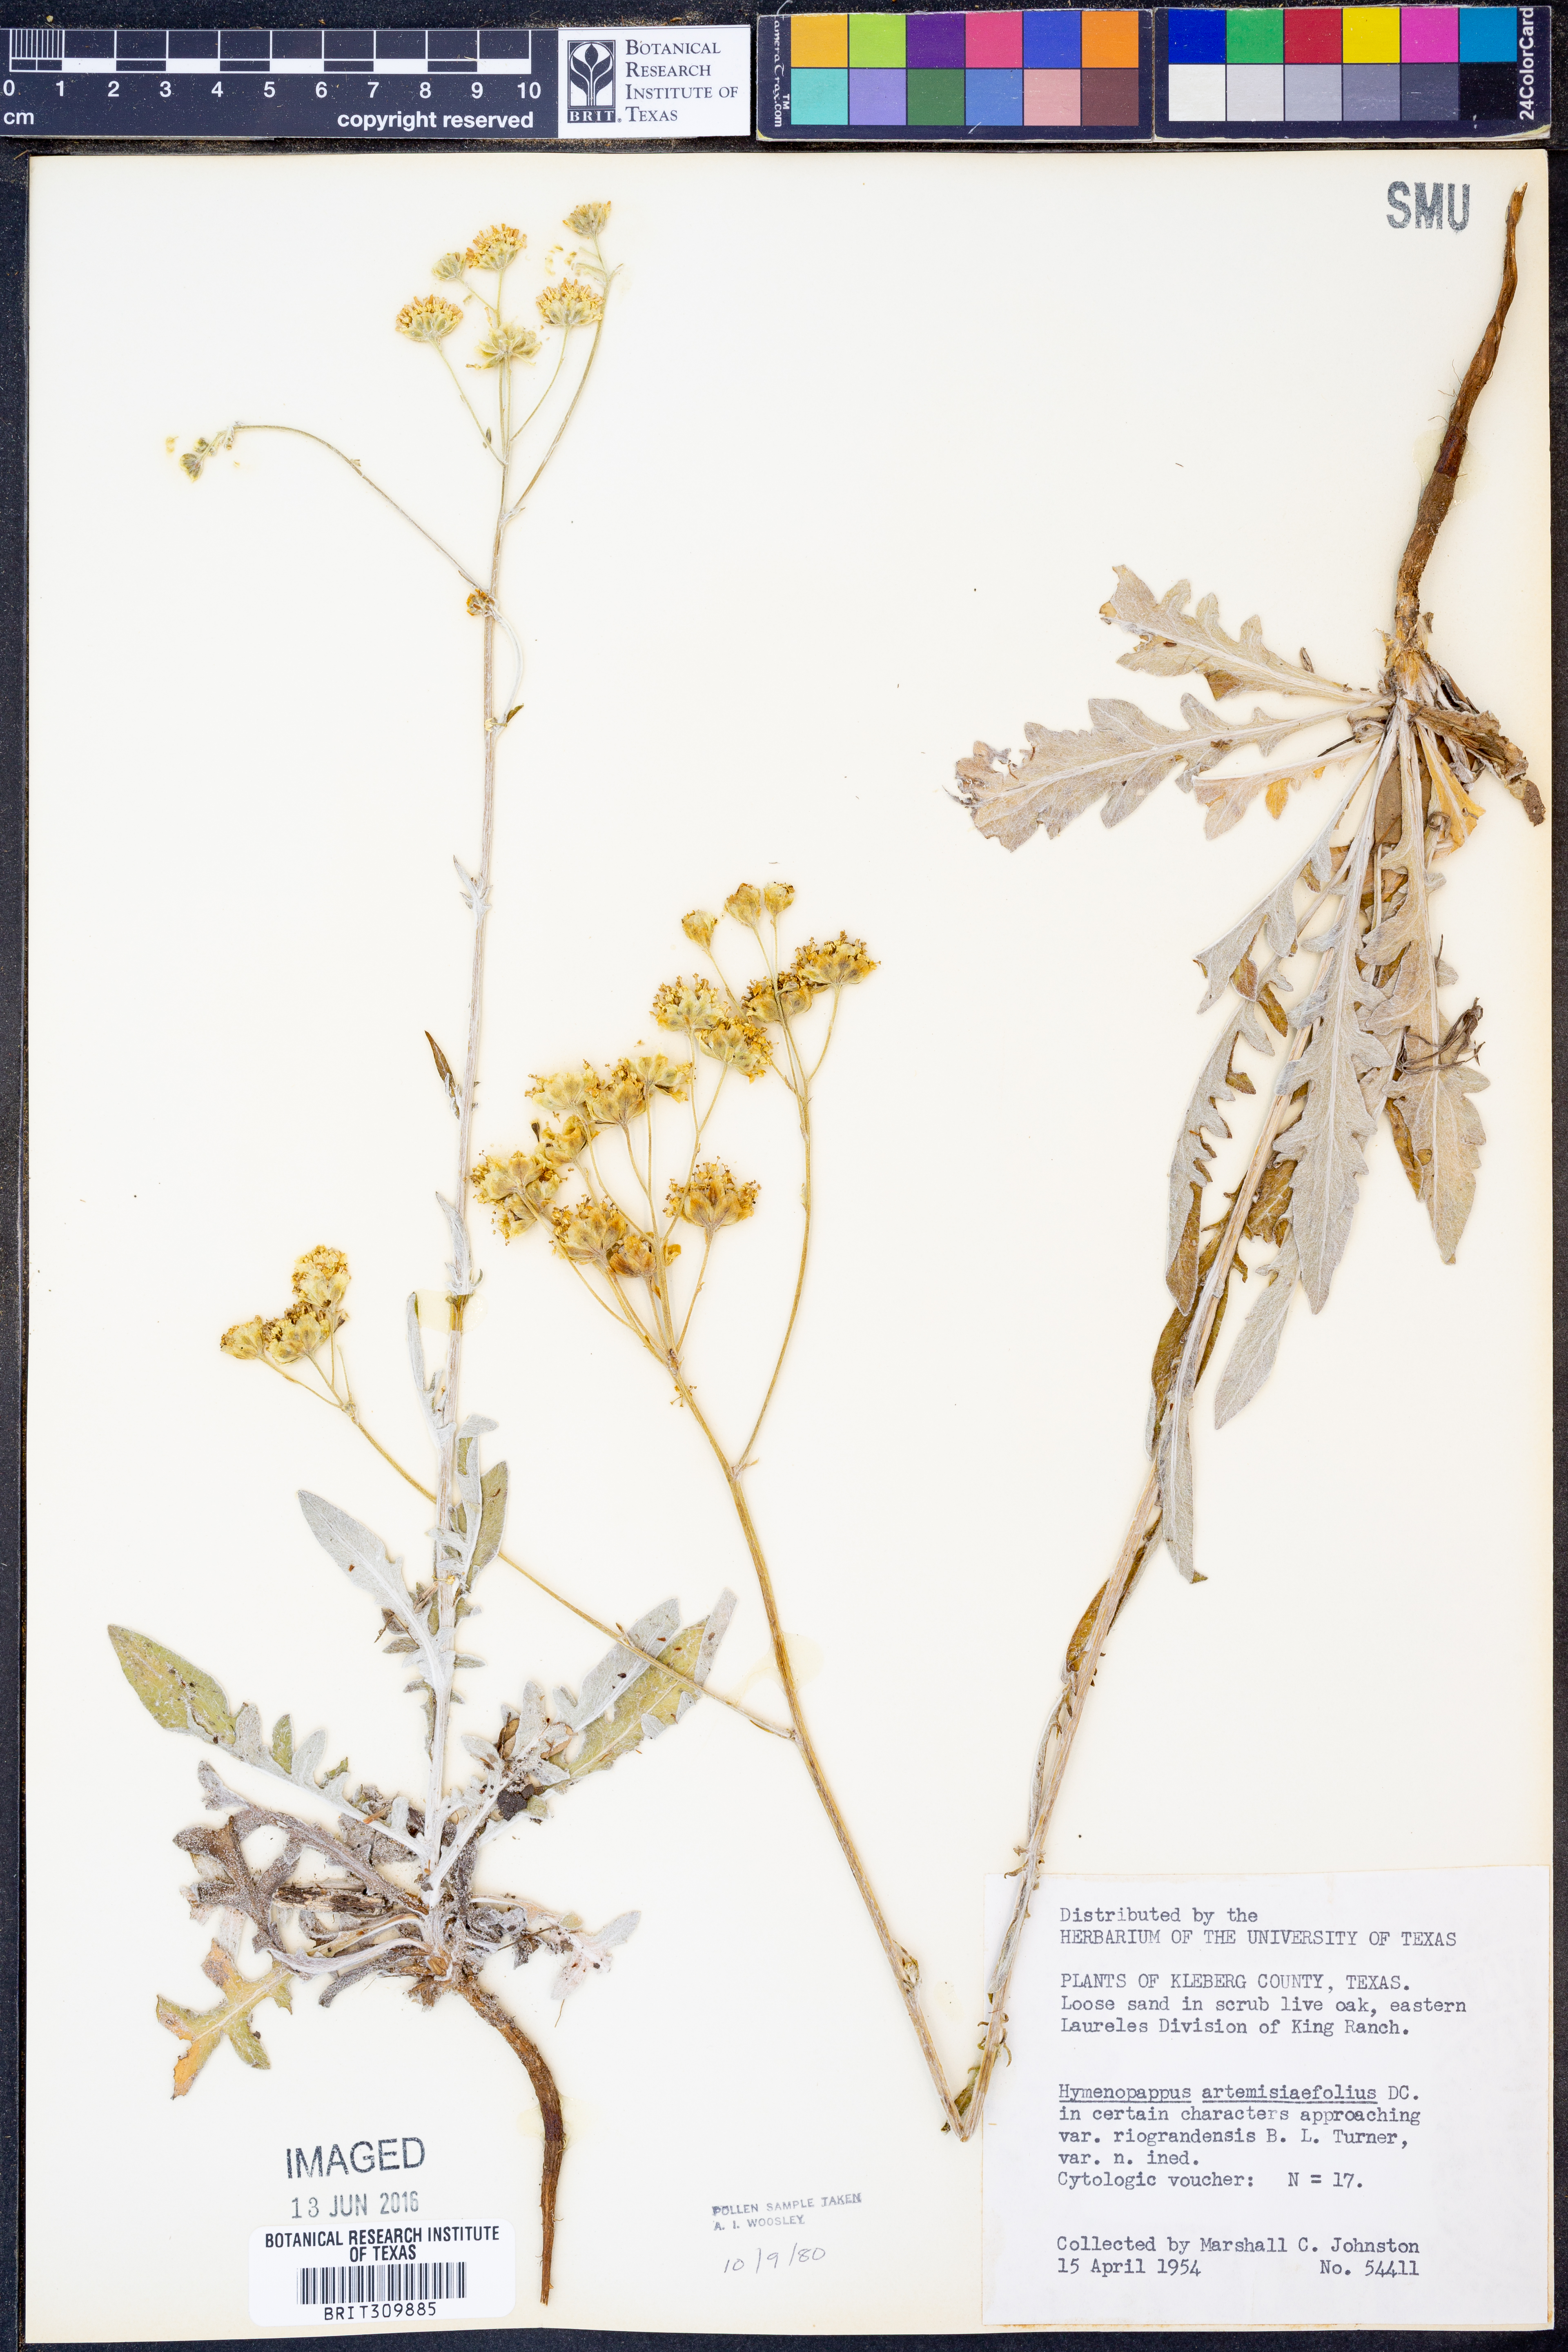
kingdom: Plantae
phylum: Tracheophyta
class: Magnoliopsida
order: Asterales
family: Asteraceae
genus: Hymenopappus
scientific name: Hymenopappus artemisiifolius
